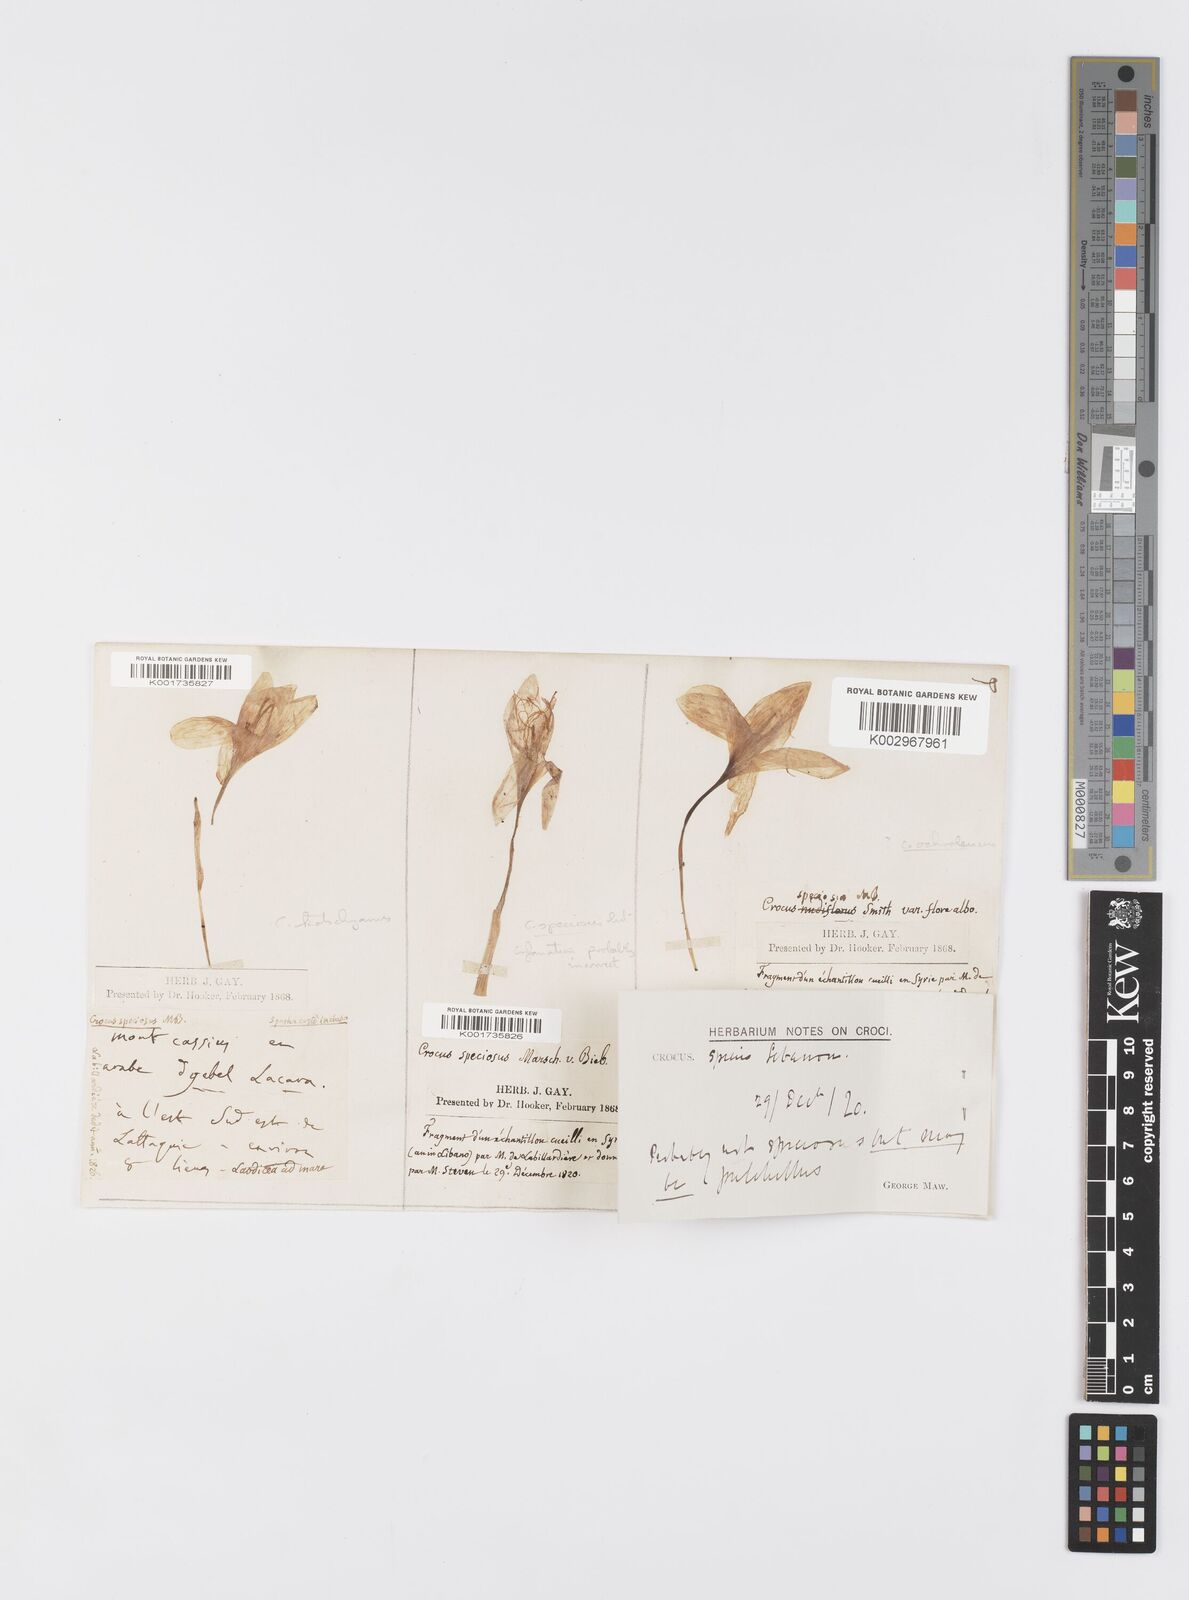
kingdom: Plantae
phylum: Tracheophyta
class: Liliopsida
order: Asparagales
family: Iridaceae
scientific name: Iridaceae
